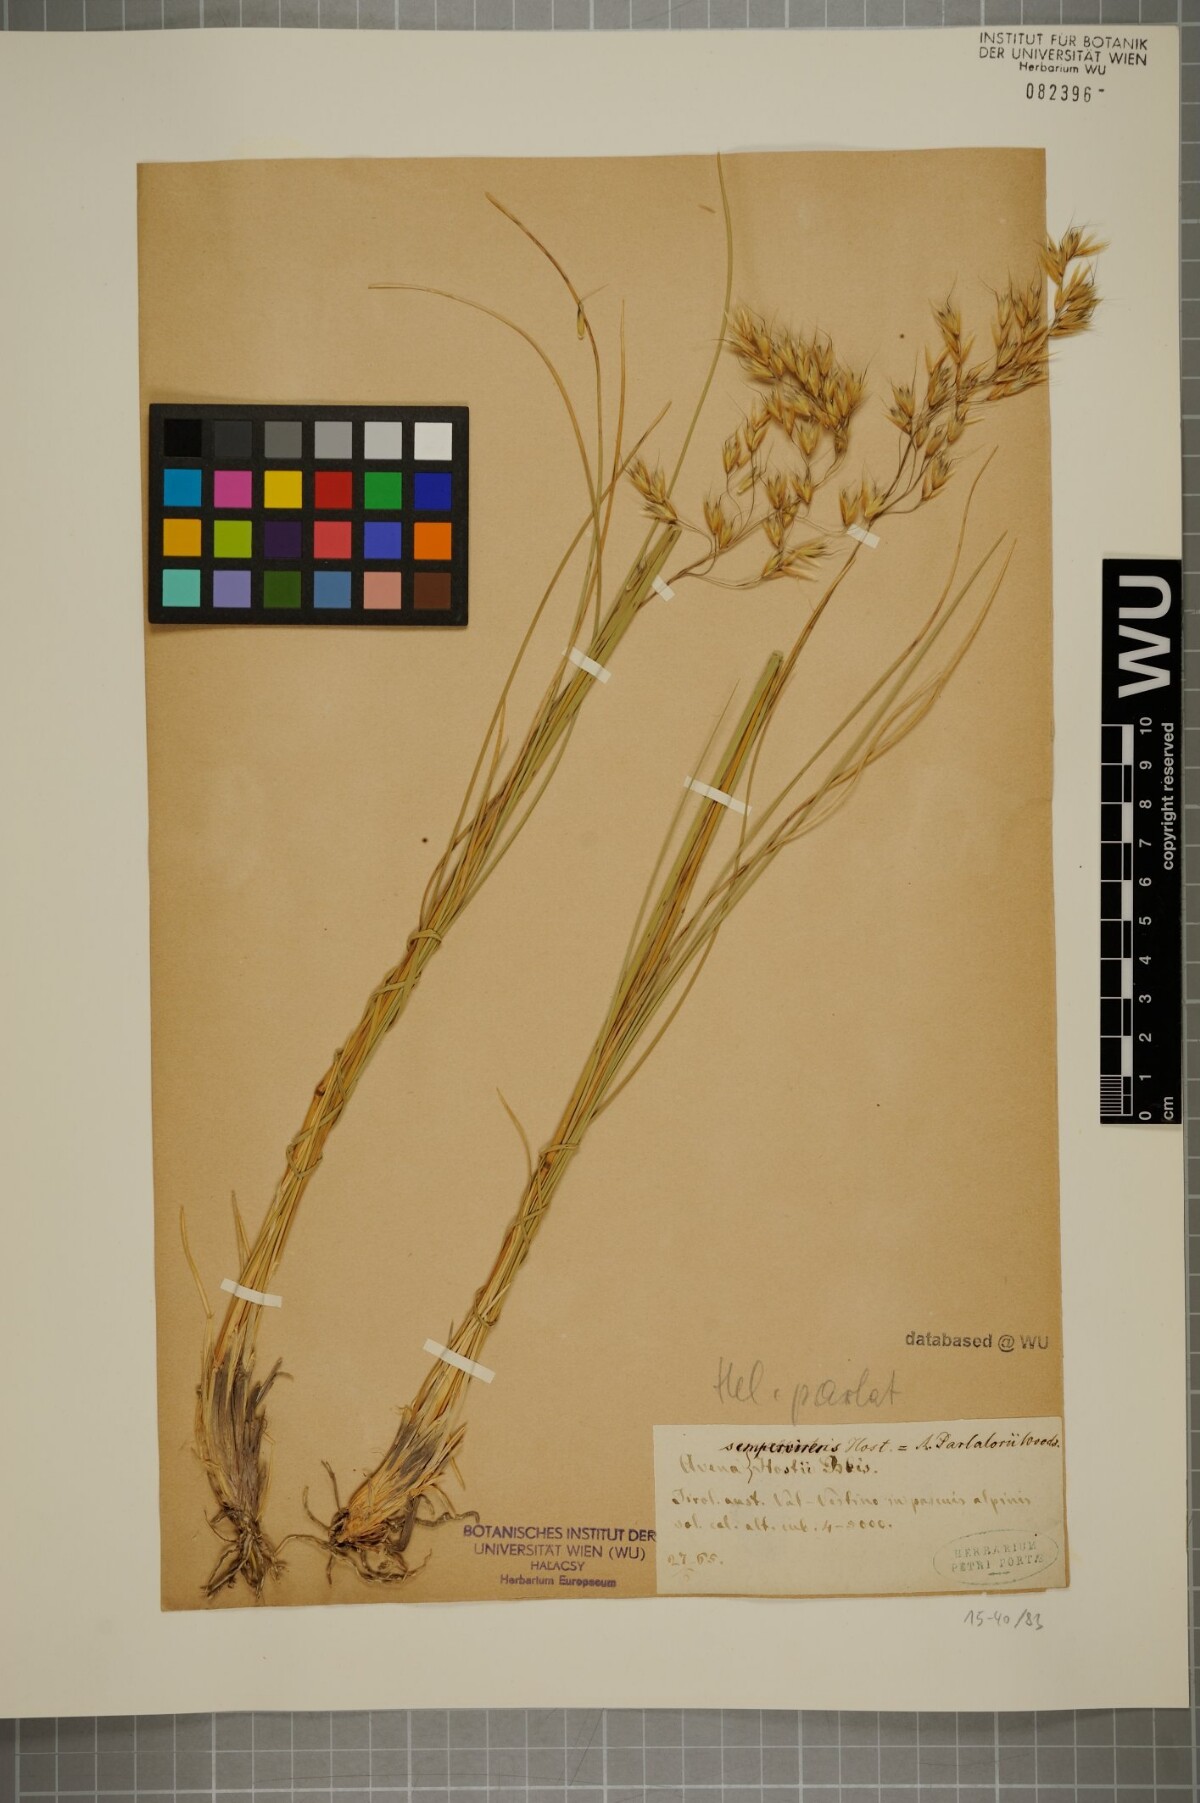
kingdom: Plantae
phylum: Tracheophyta
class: Liliopsida
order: Poales
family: Poaceae
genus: Helictotrichon
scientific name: Helictotrichon parlatorei
